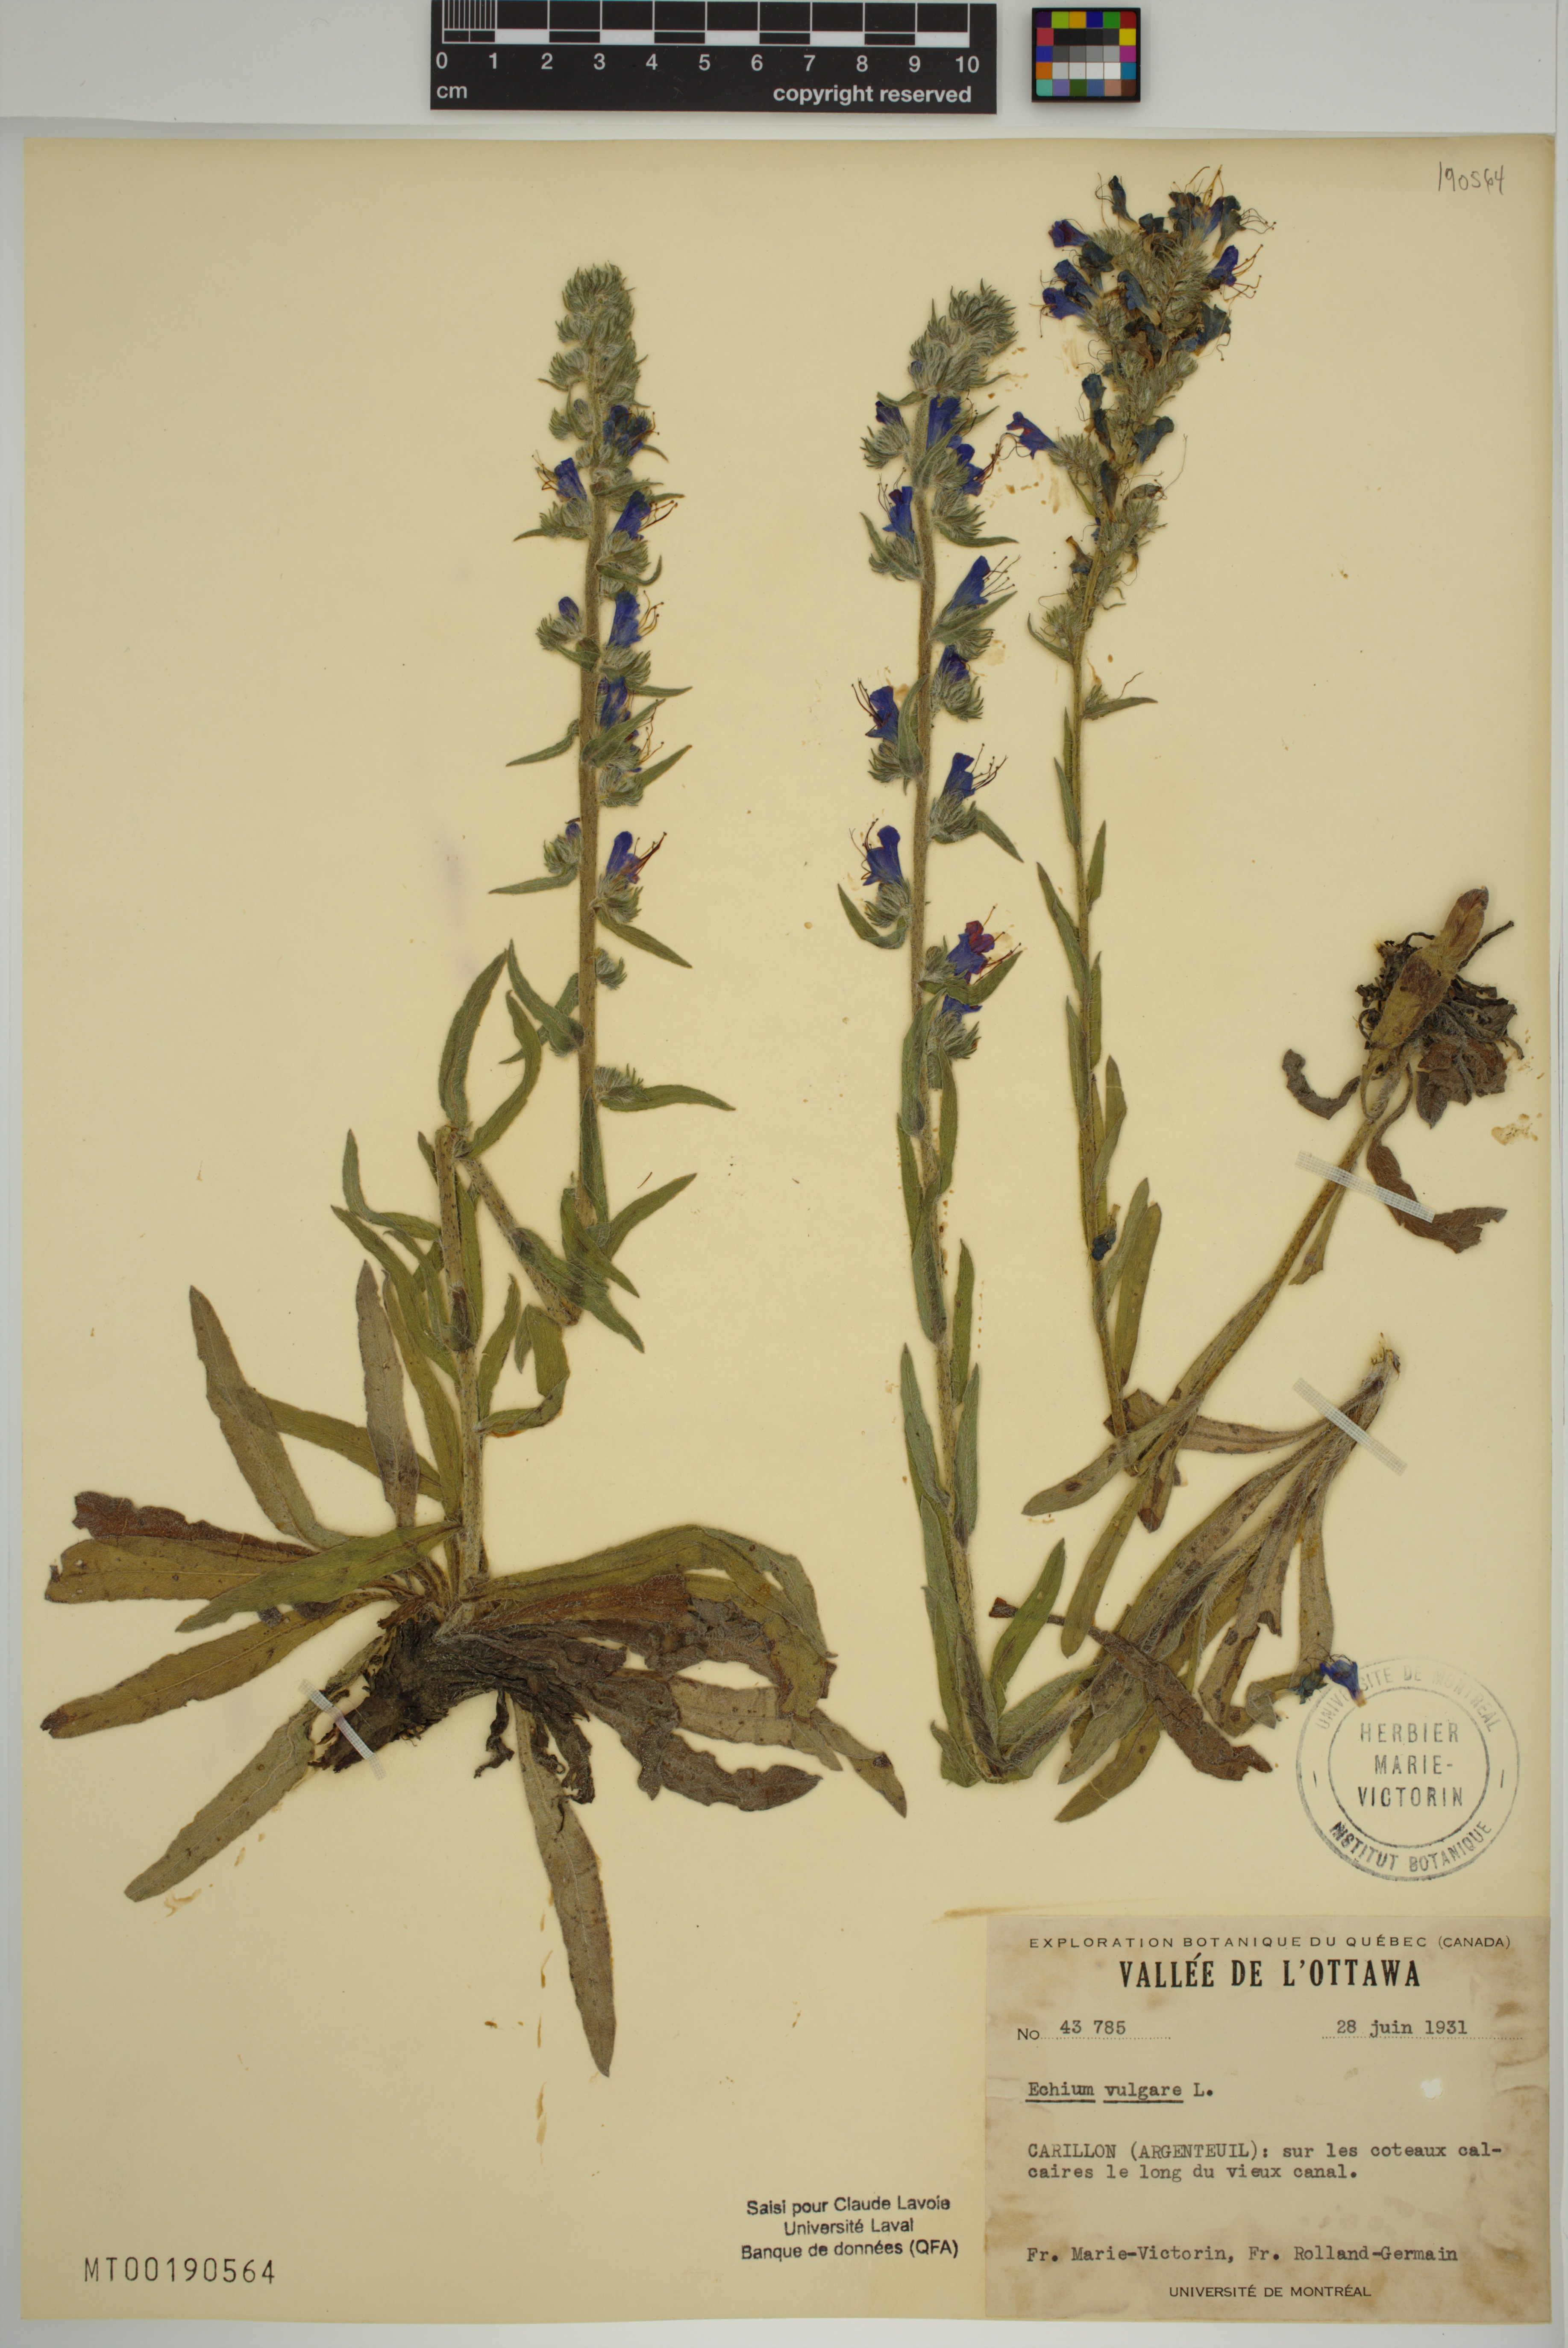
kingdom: Plantae
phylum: Tracheophyta
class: Magnoliopsida
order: Boraginales
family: Boraginaceae
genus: Echium
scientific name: Echium vulgare
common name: Common viper's bugloss
